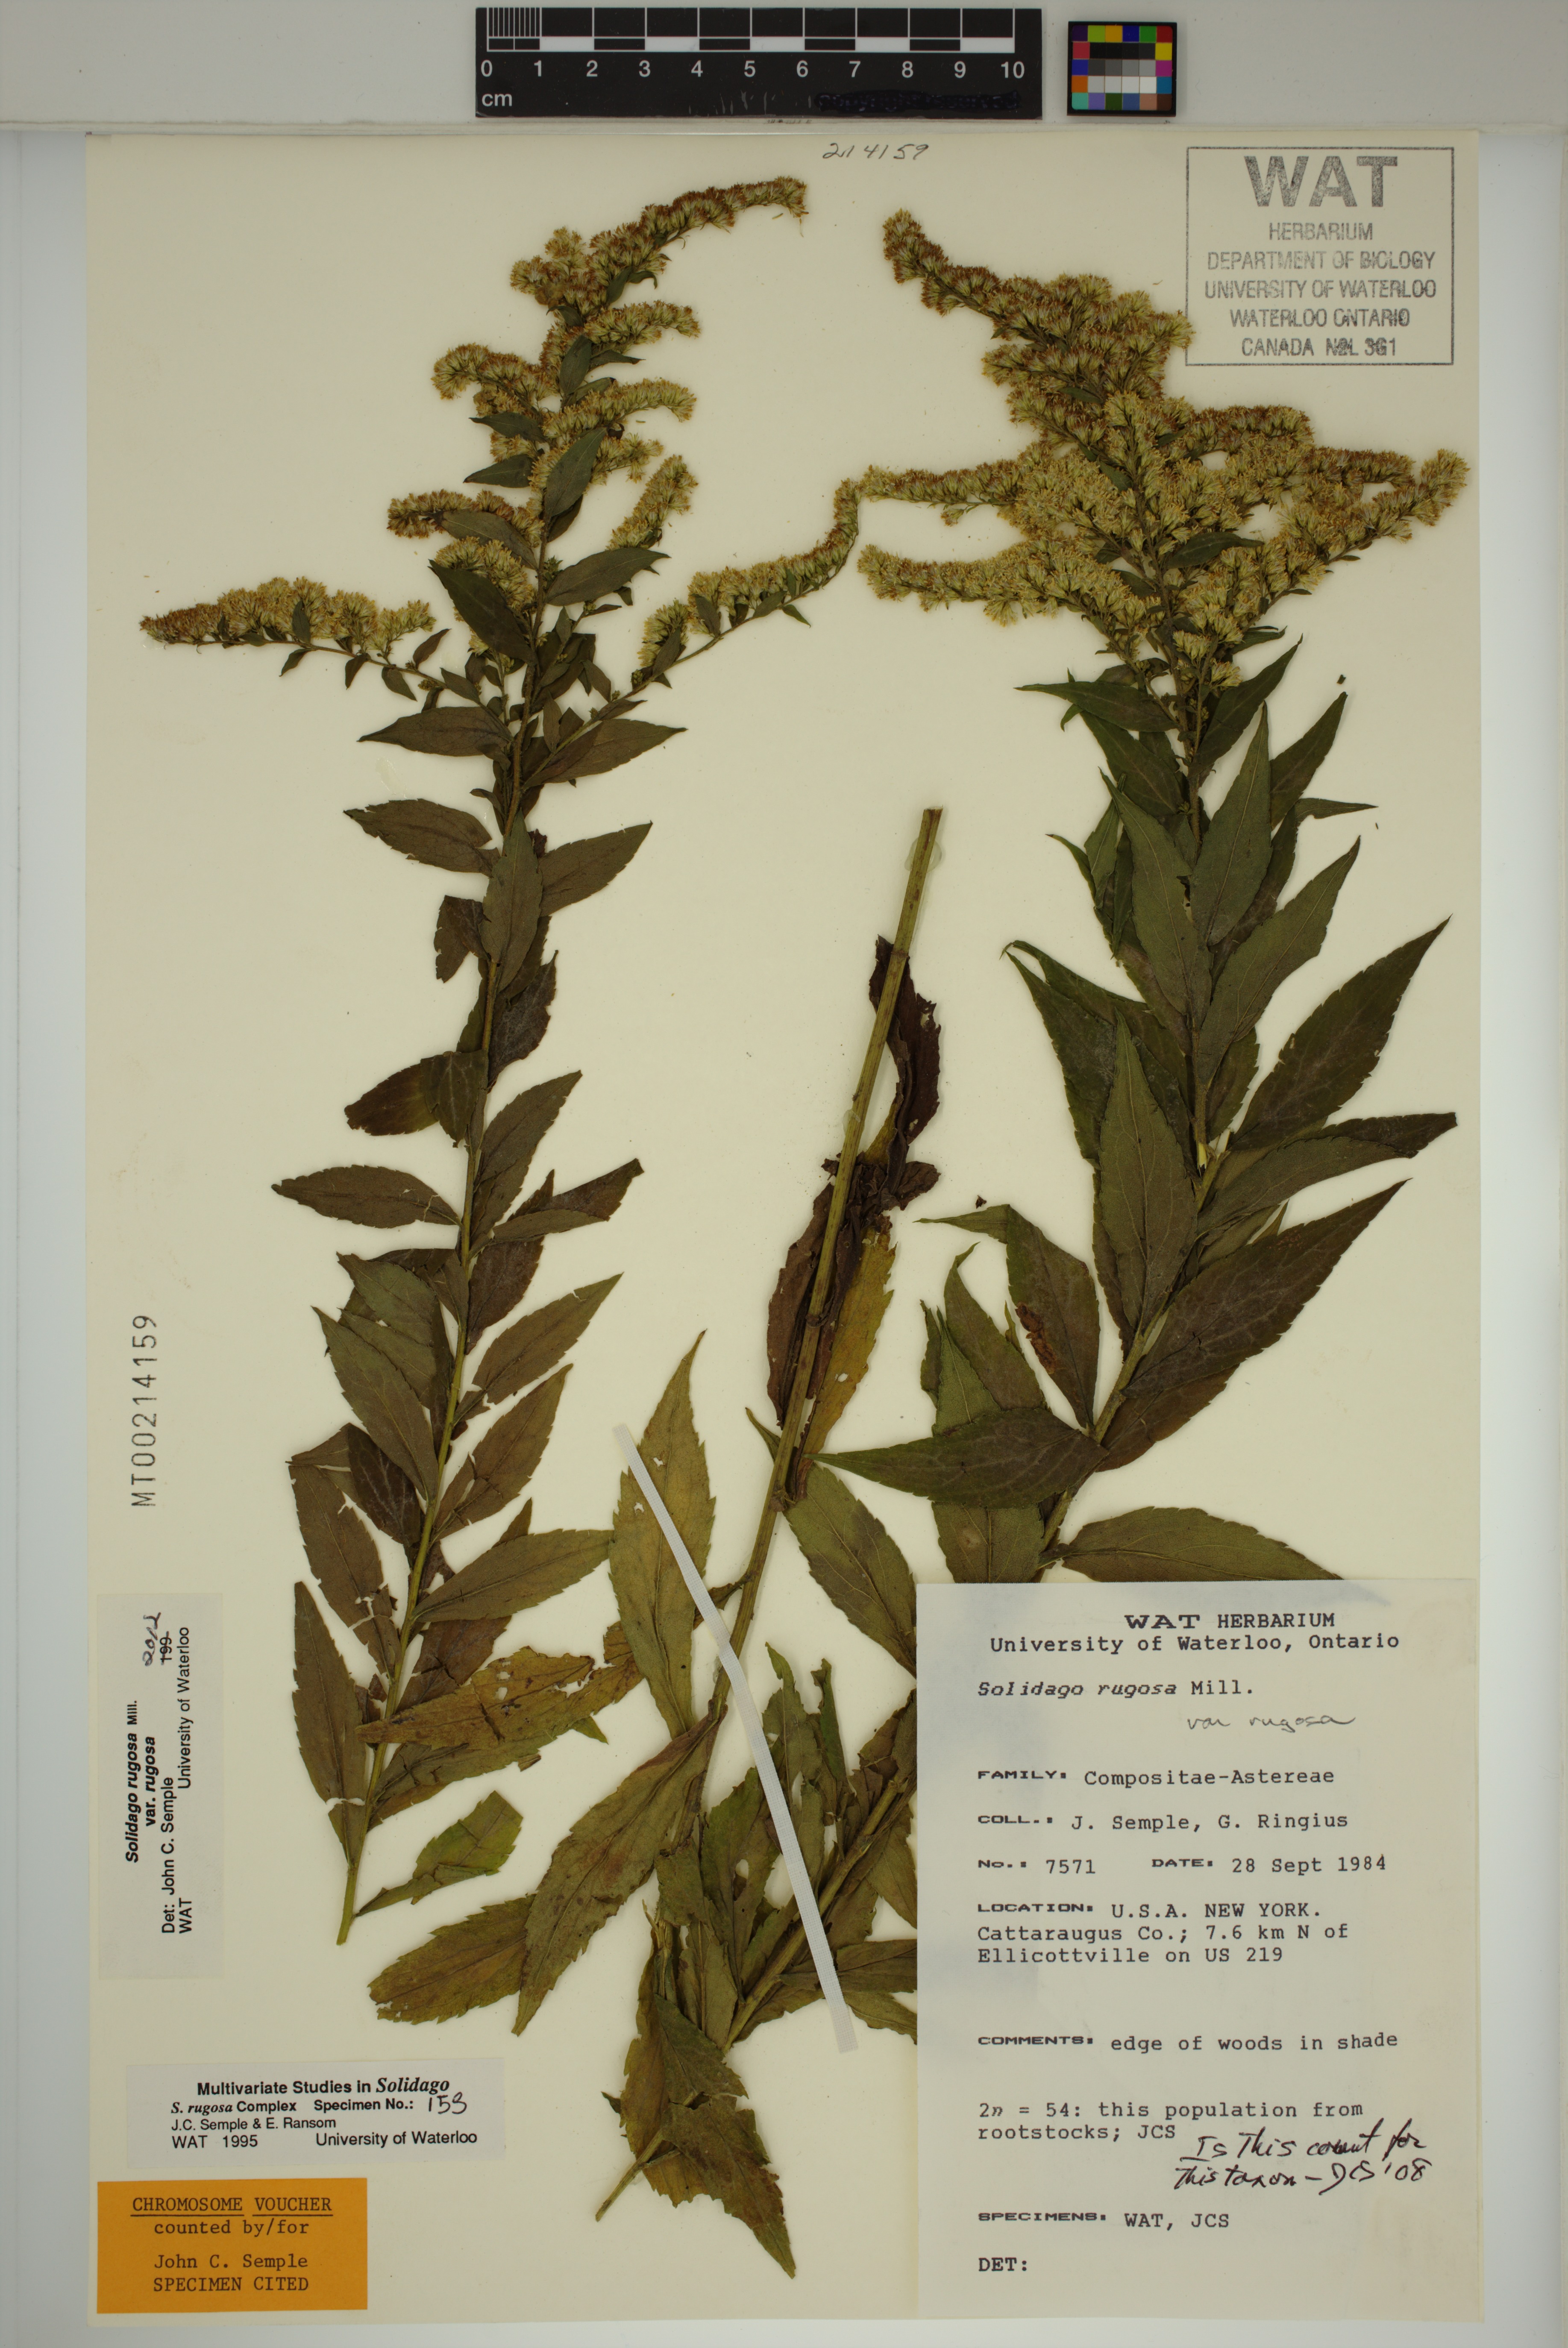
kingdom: Plantae
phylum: Tracheophyta
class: Magnoliopsida
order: Asterales
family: Asteraceae
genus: Solidago
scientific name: Solidago rugosa
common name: Rough-stemmed goldenrod
